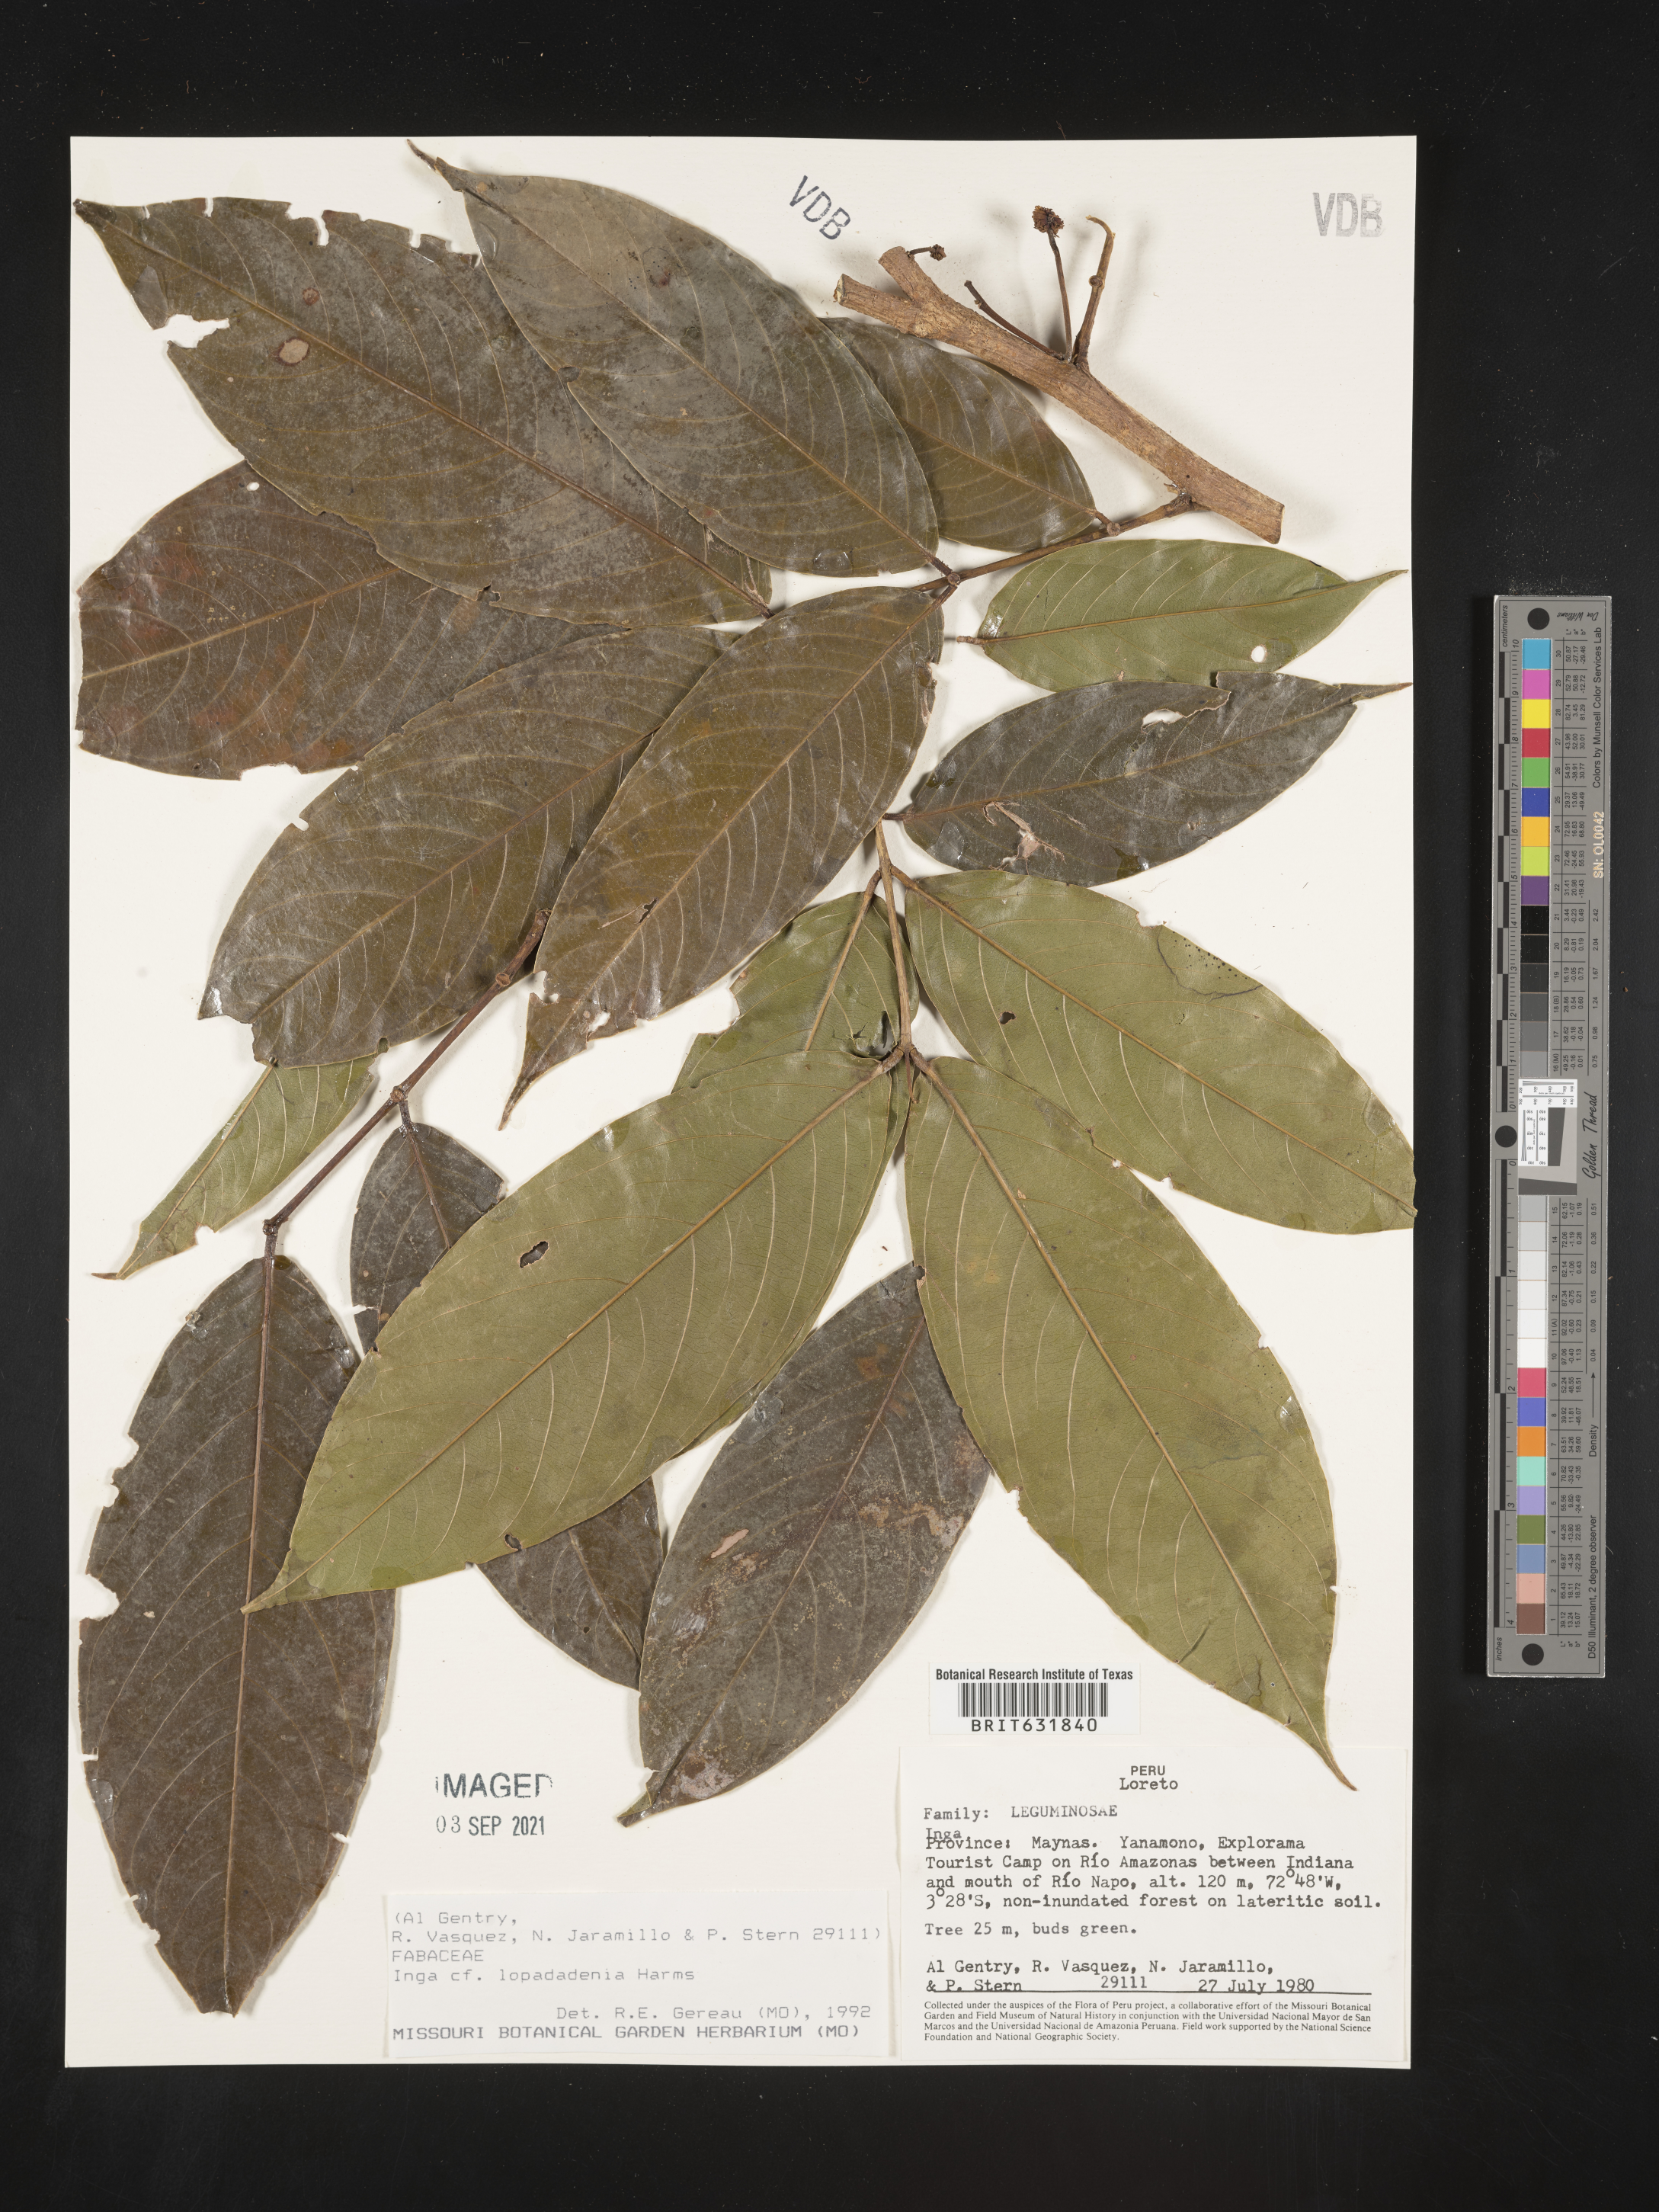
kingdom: Plantae
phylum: Tracheophyta
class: Magnoliopsida
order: Fabales
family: Fabaceae
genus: Inga
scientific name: Inga
